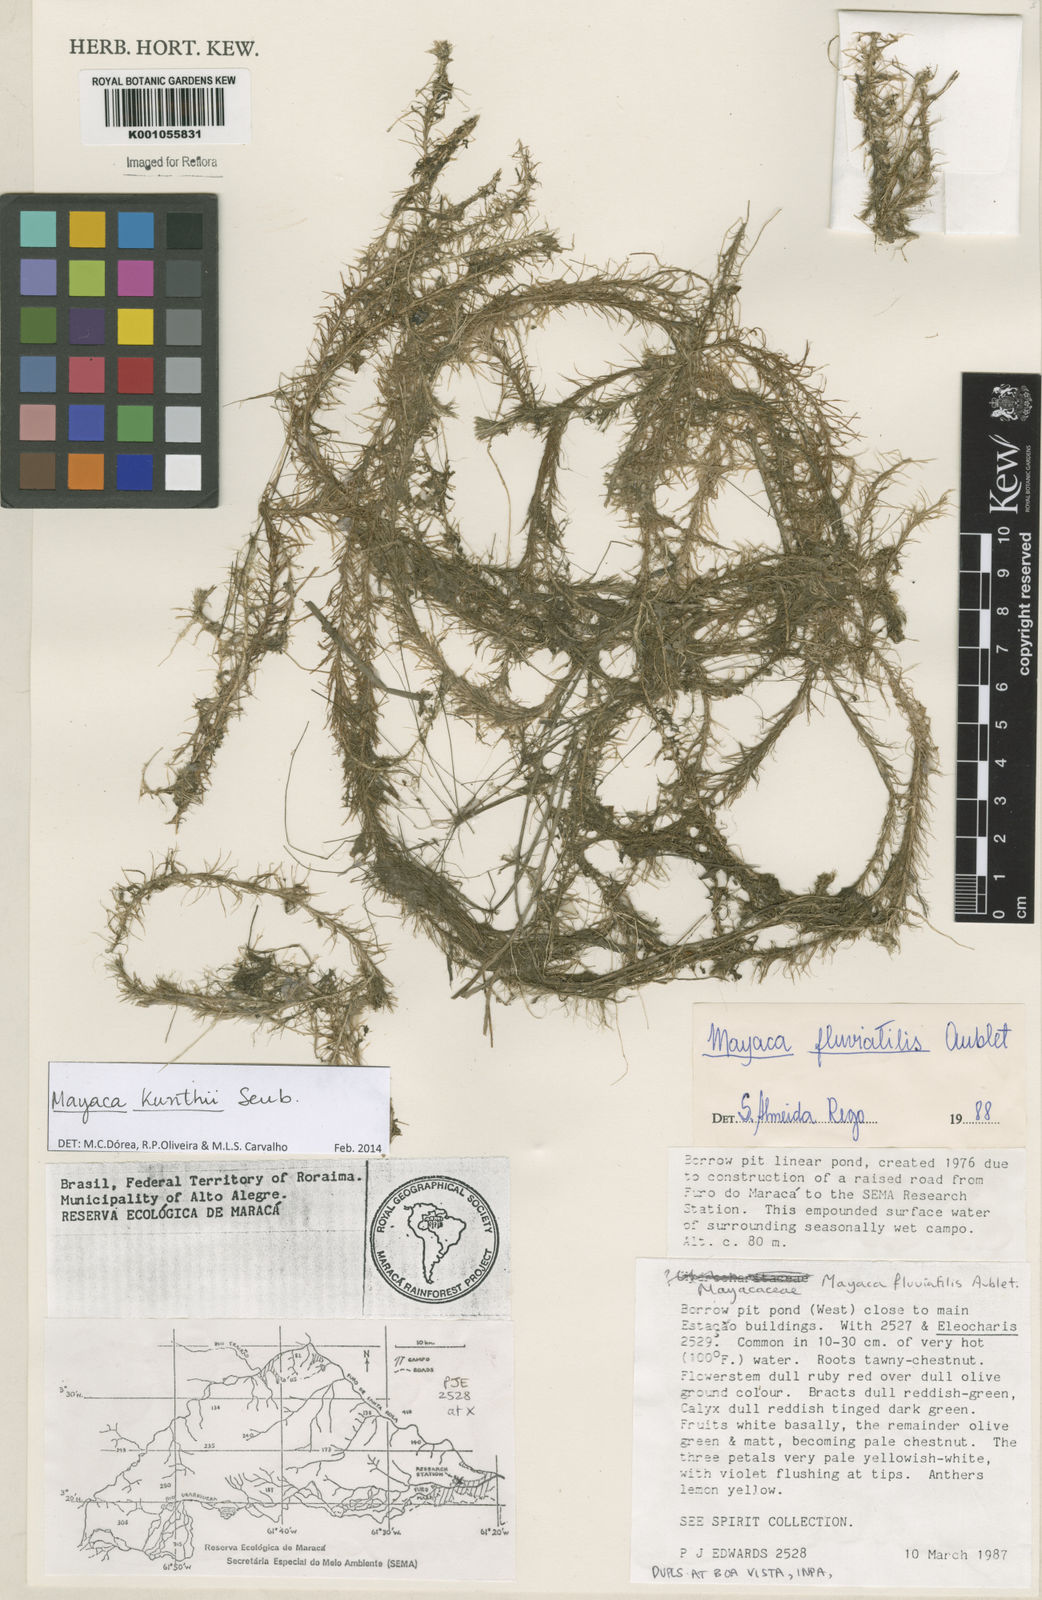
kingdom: Plantae
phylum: Tracheophyta
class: Liliopsida
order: Poales
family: Mayacaceae
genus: Mayaca
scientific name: Mayaca kunthii
